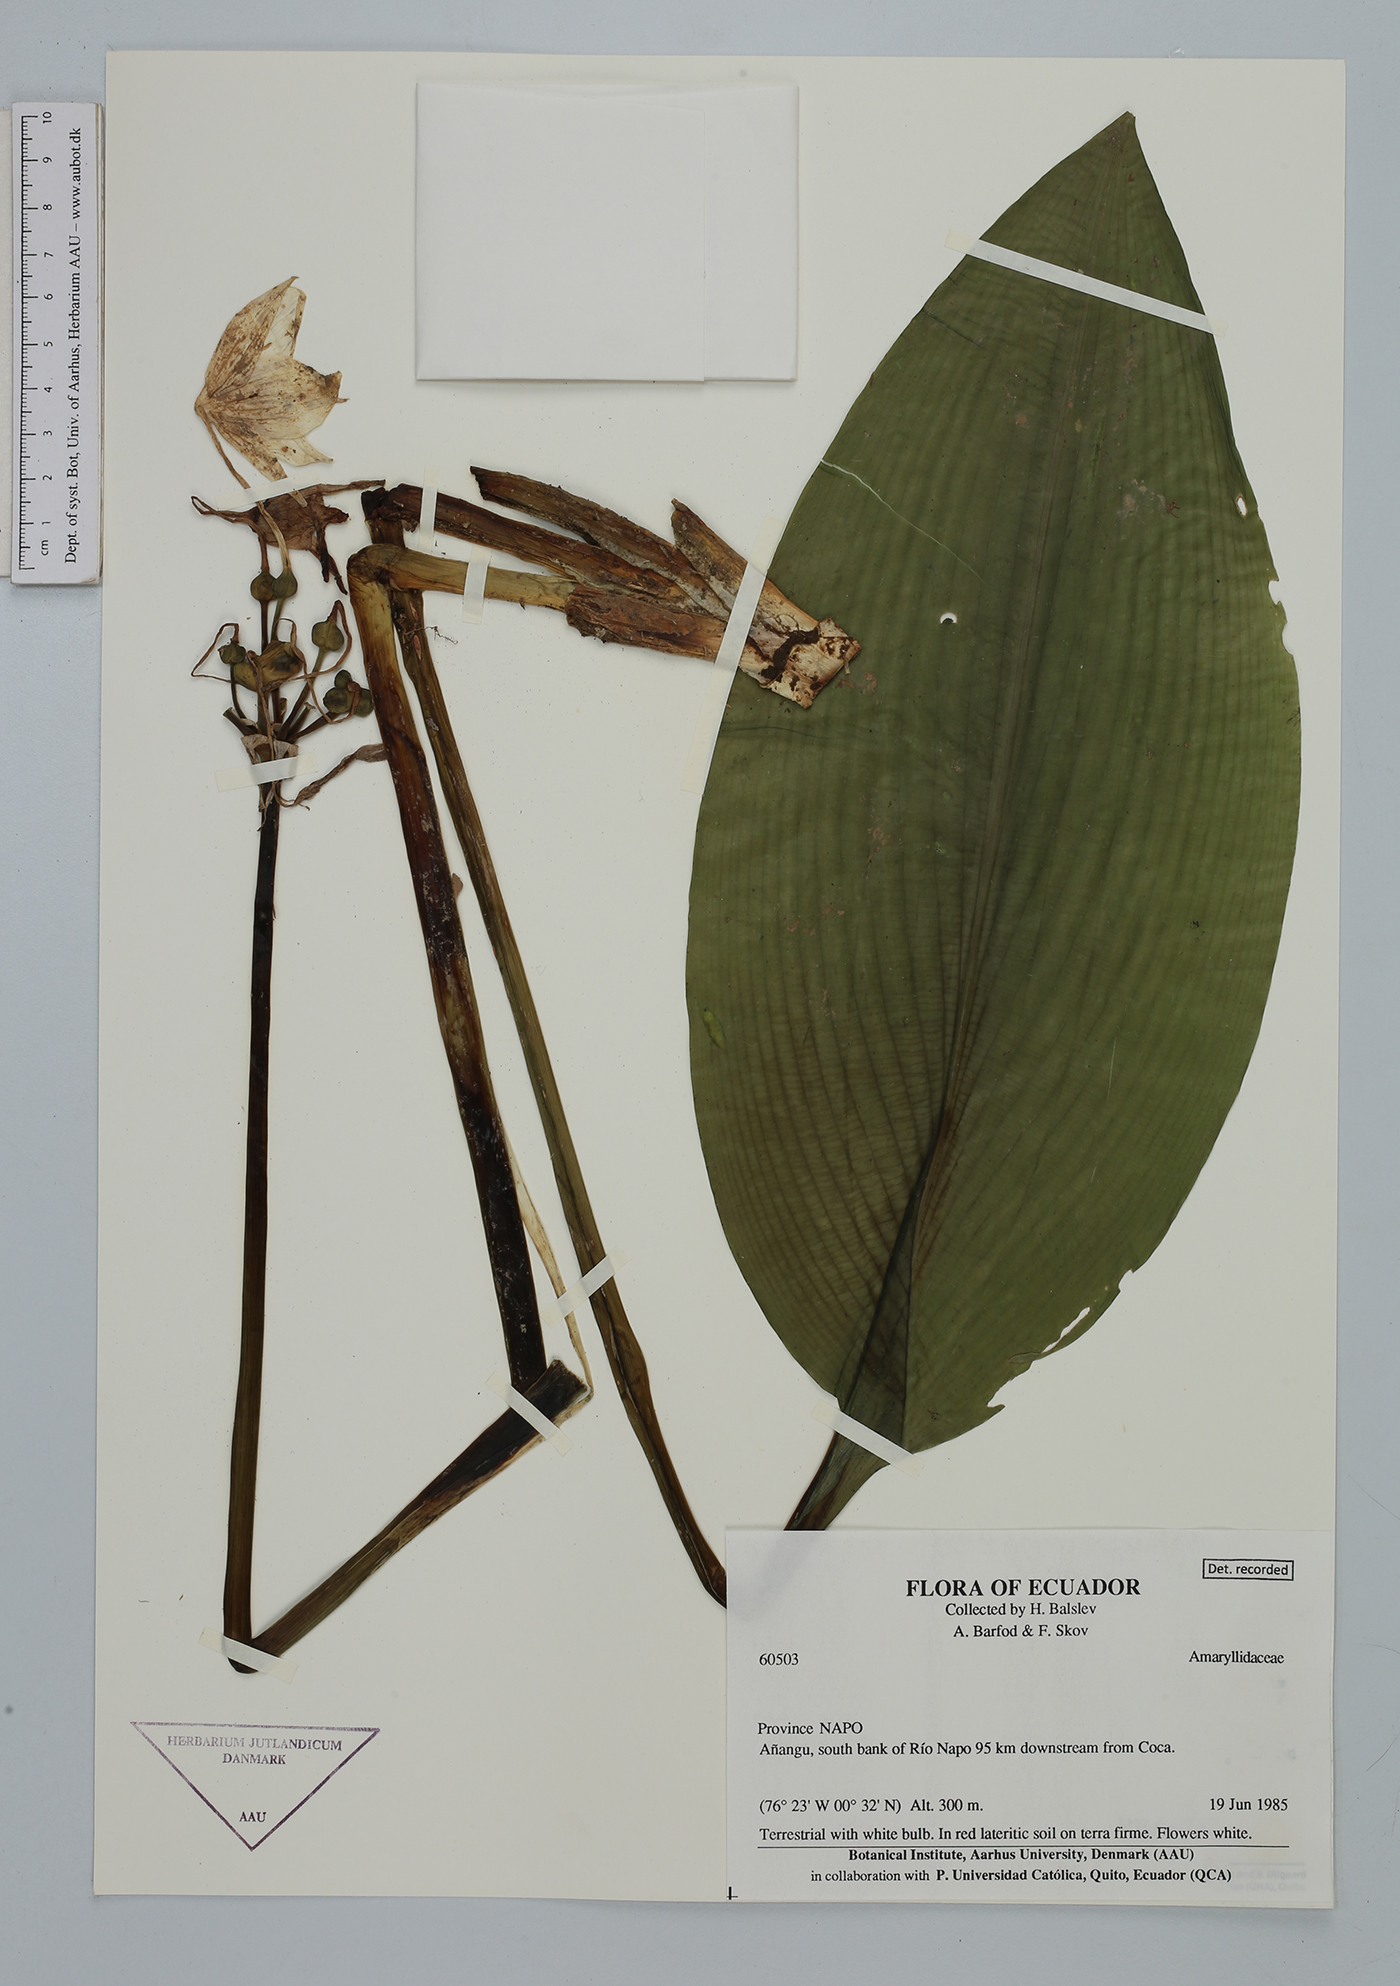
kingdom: Plantae
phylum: Tracheophyta
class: Liliopsida
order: Asparagales
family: Amaryllidaceae
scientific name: Amaryllidaceae
